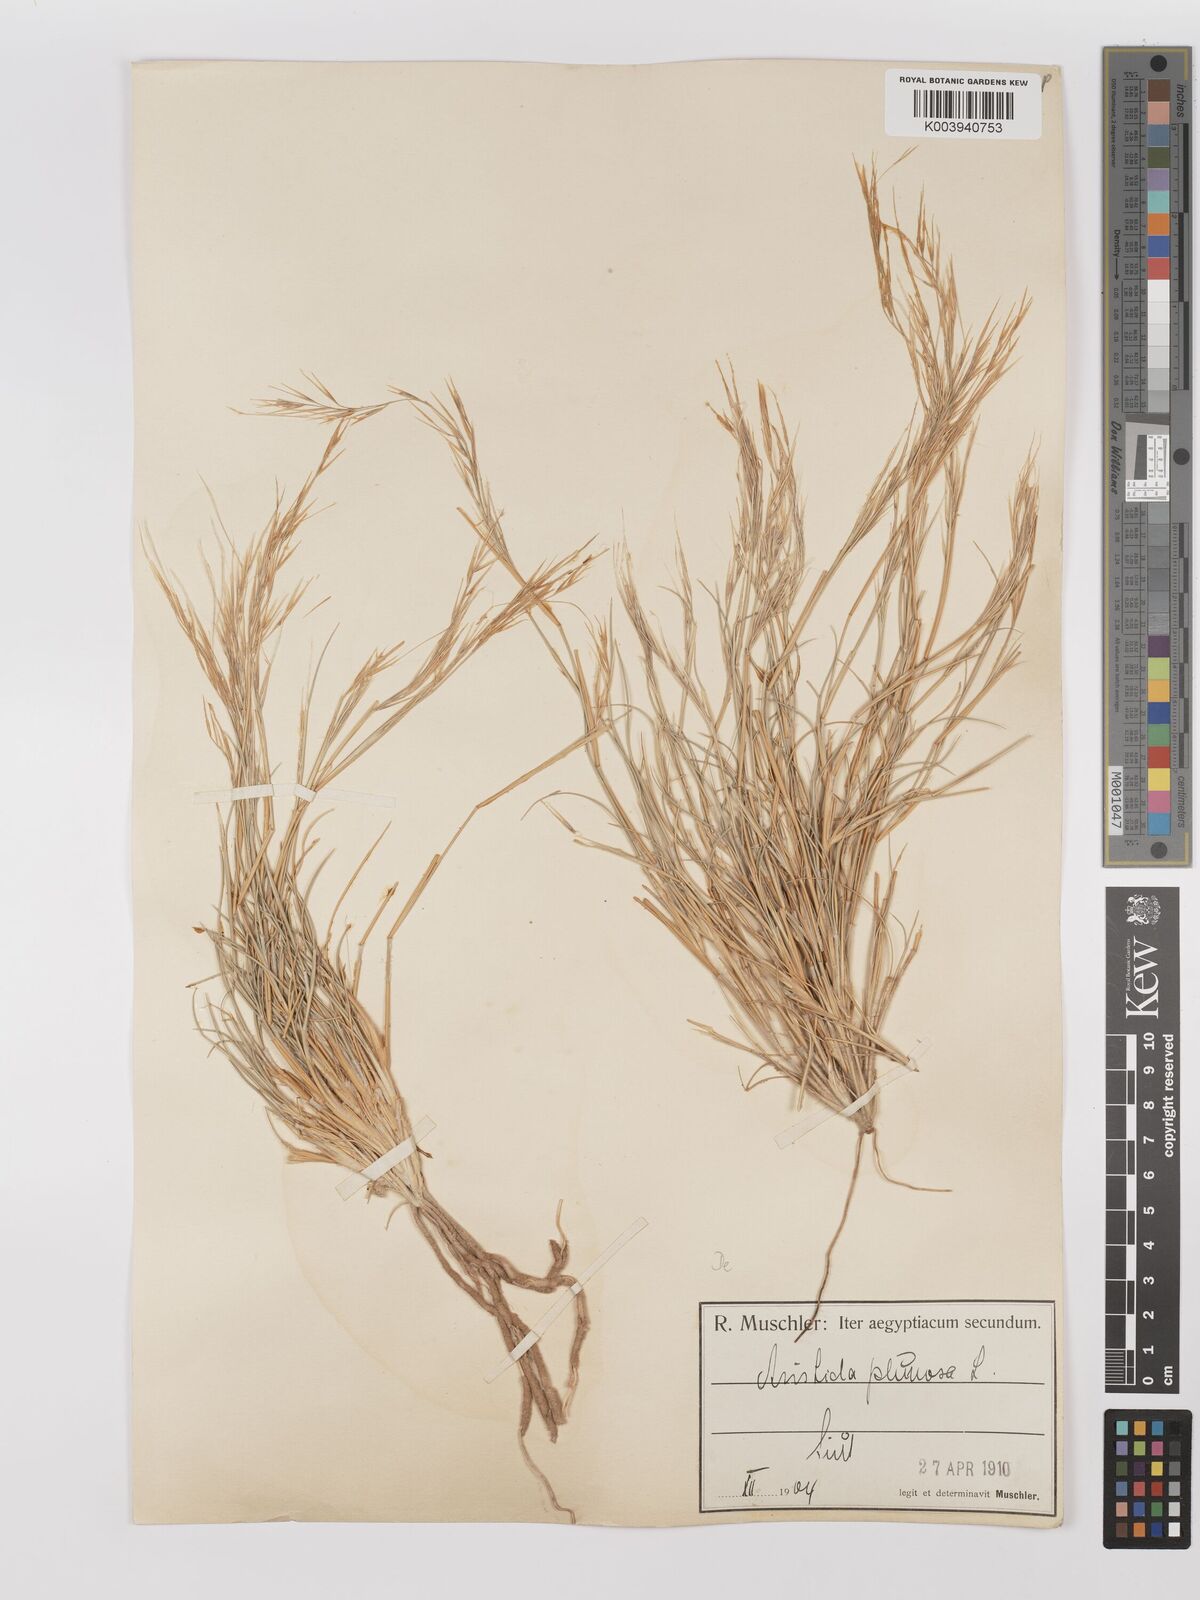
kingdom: Plantae
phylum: Tracheophyta
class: Liliopsida
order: Poales
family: Poaceae
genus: Stipagrostis
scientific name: Stipagrostis plumosa
